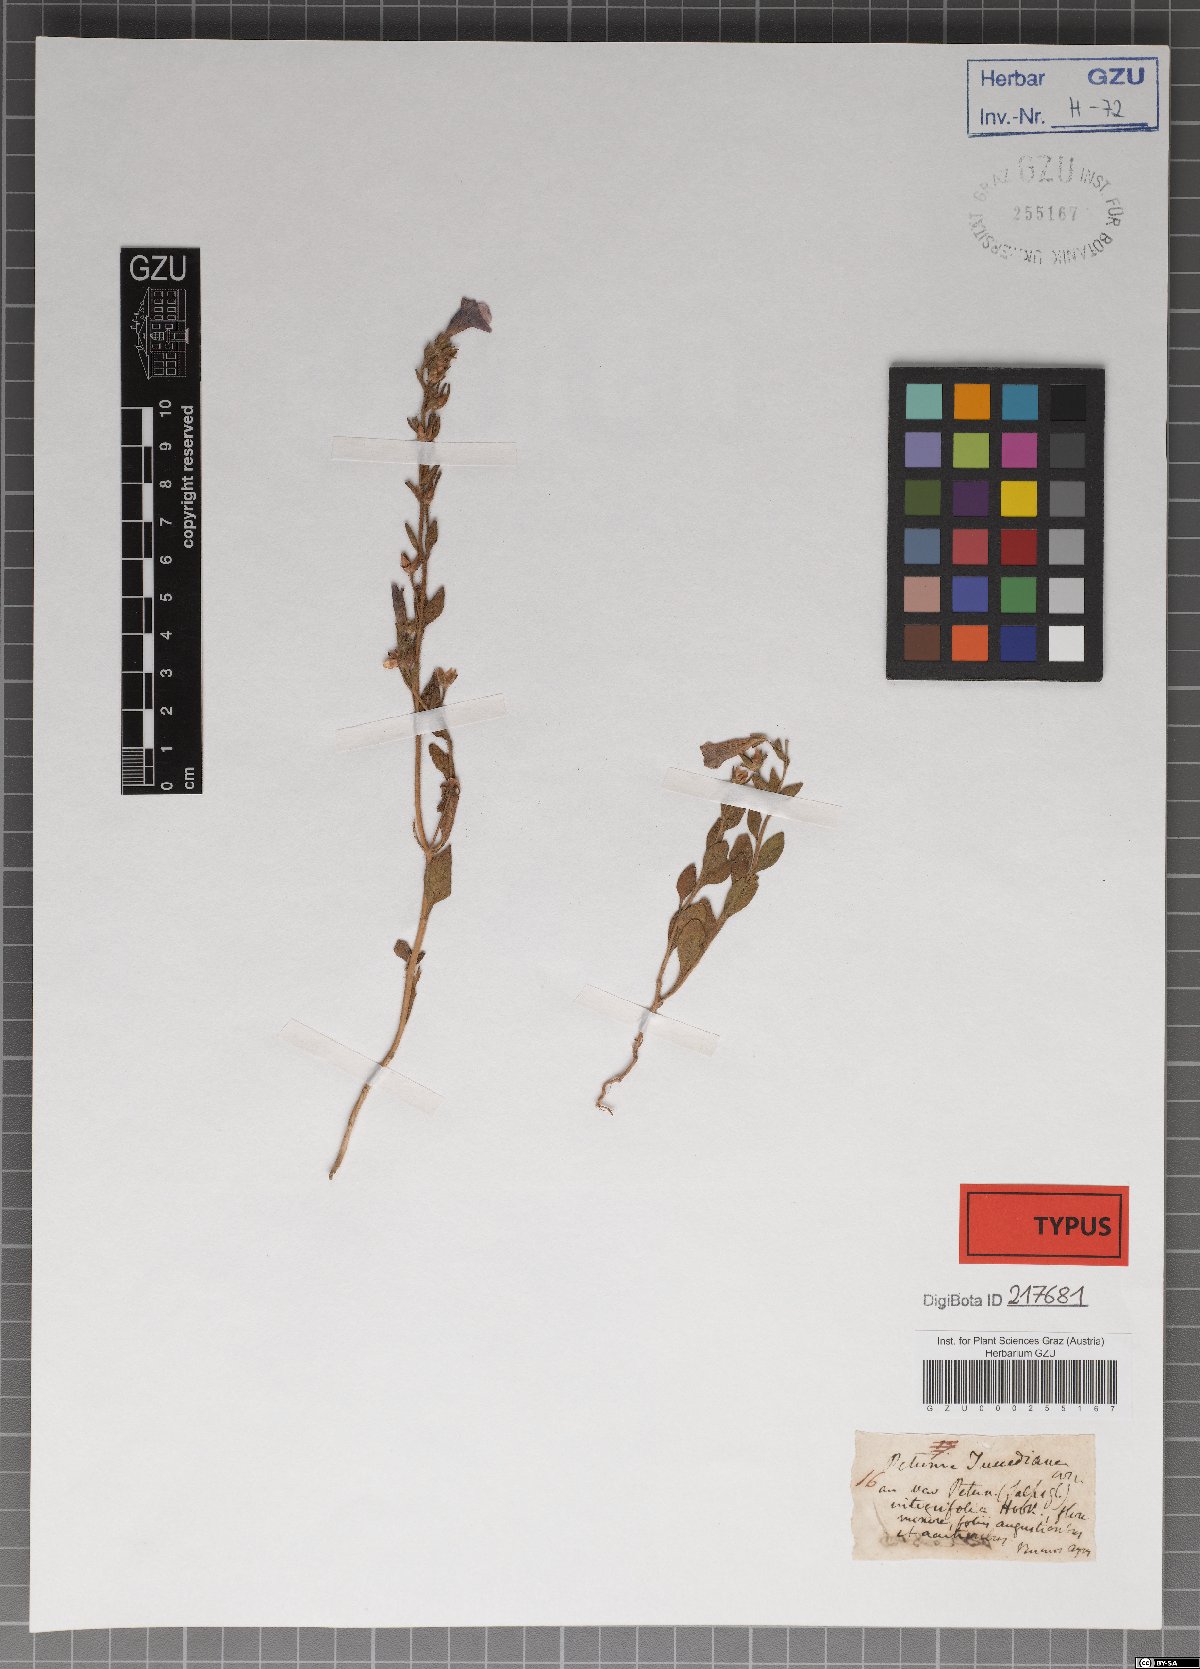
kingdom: Plantae
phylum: Tracheophyta
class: Magnoliopsida
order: Solanales
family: Solanaceae
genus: Petunia
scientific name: Petunia integrifolia
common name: Violet-flower petunia
